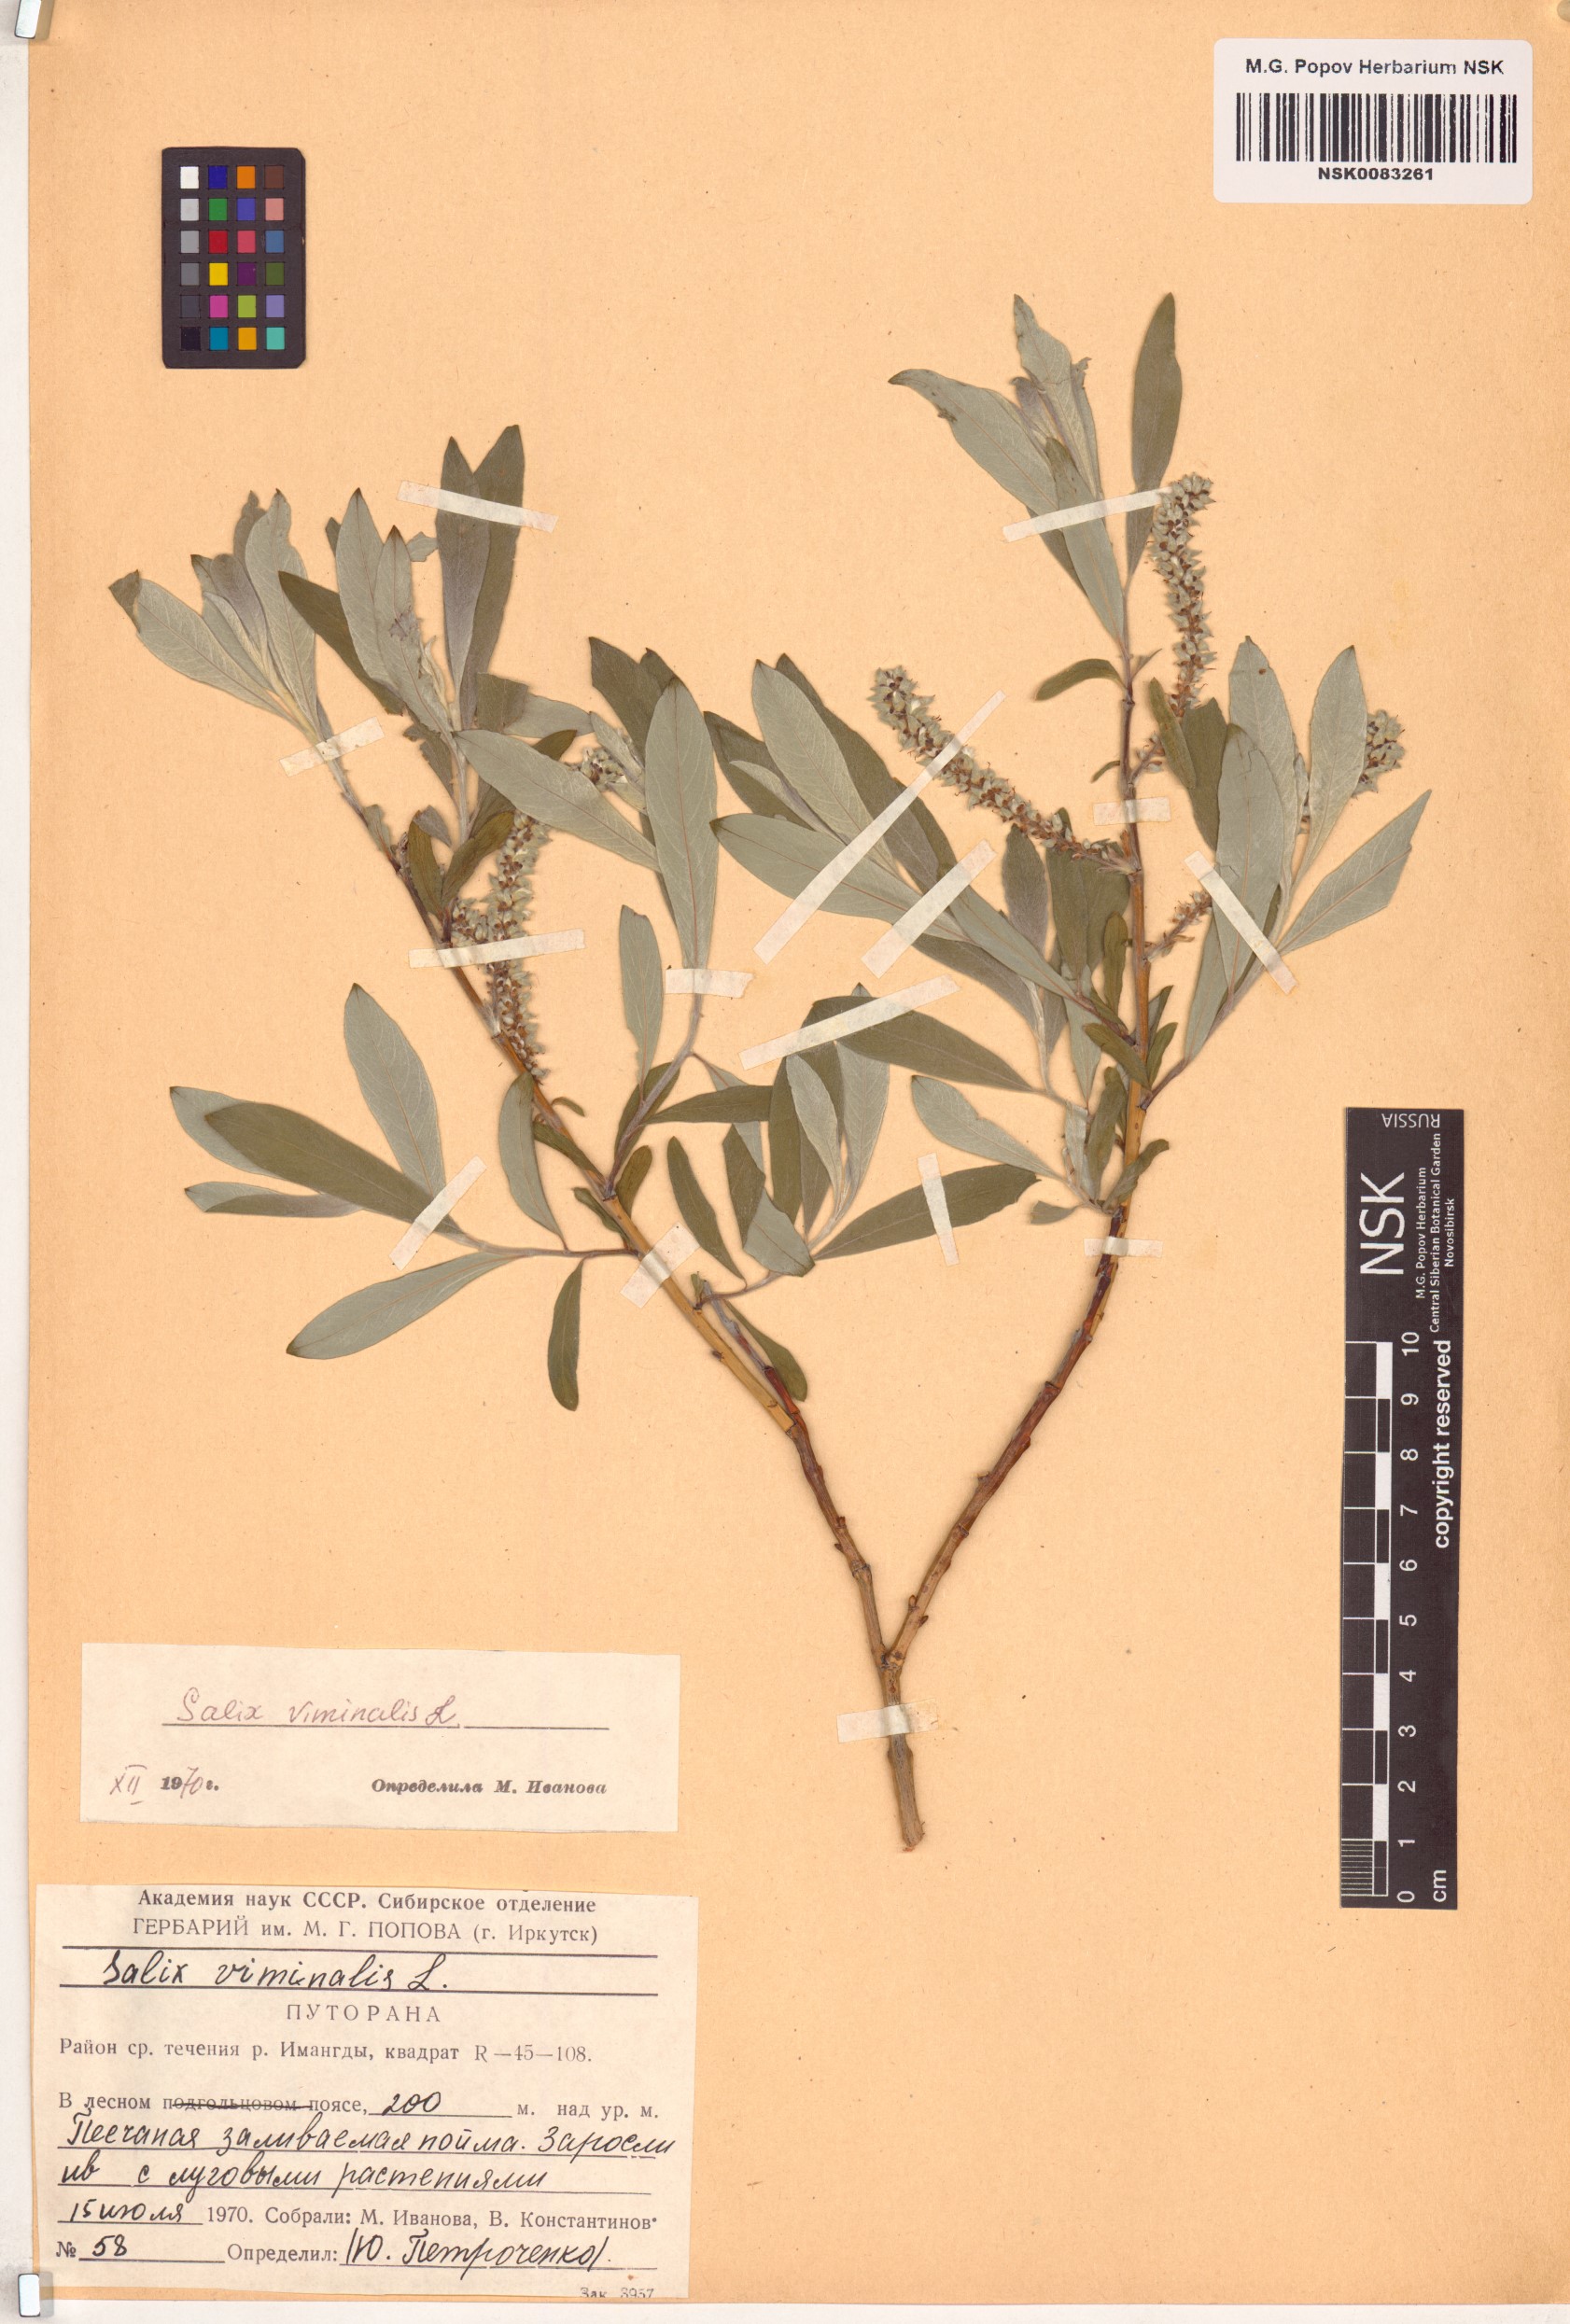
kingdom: Plantae
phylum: Tracheophyta
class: Magnoliopsida
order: Malpighiales
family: Salicaceae
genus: Salix
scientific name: Salix viminalis
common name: Osier
